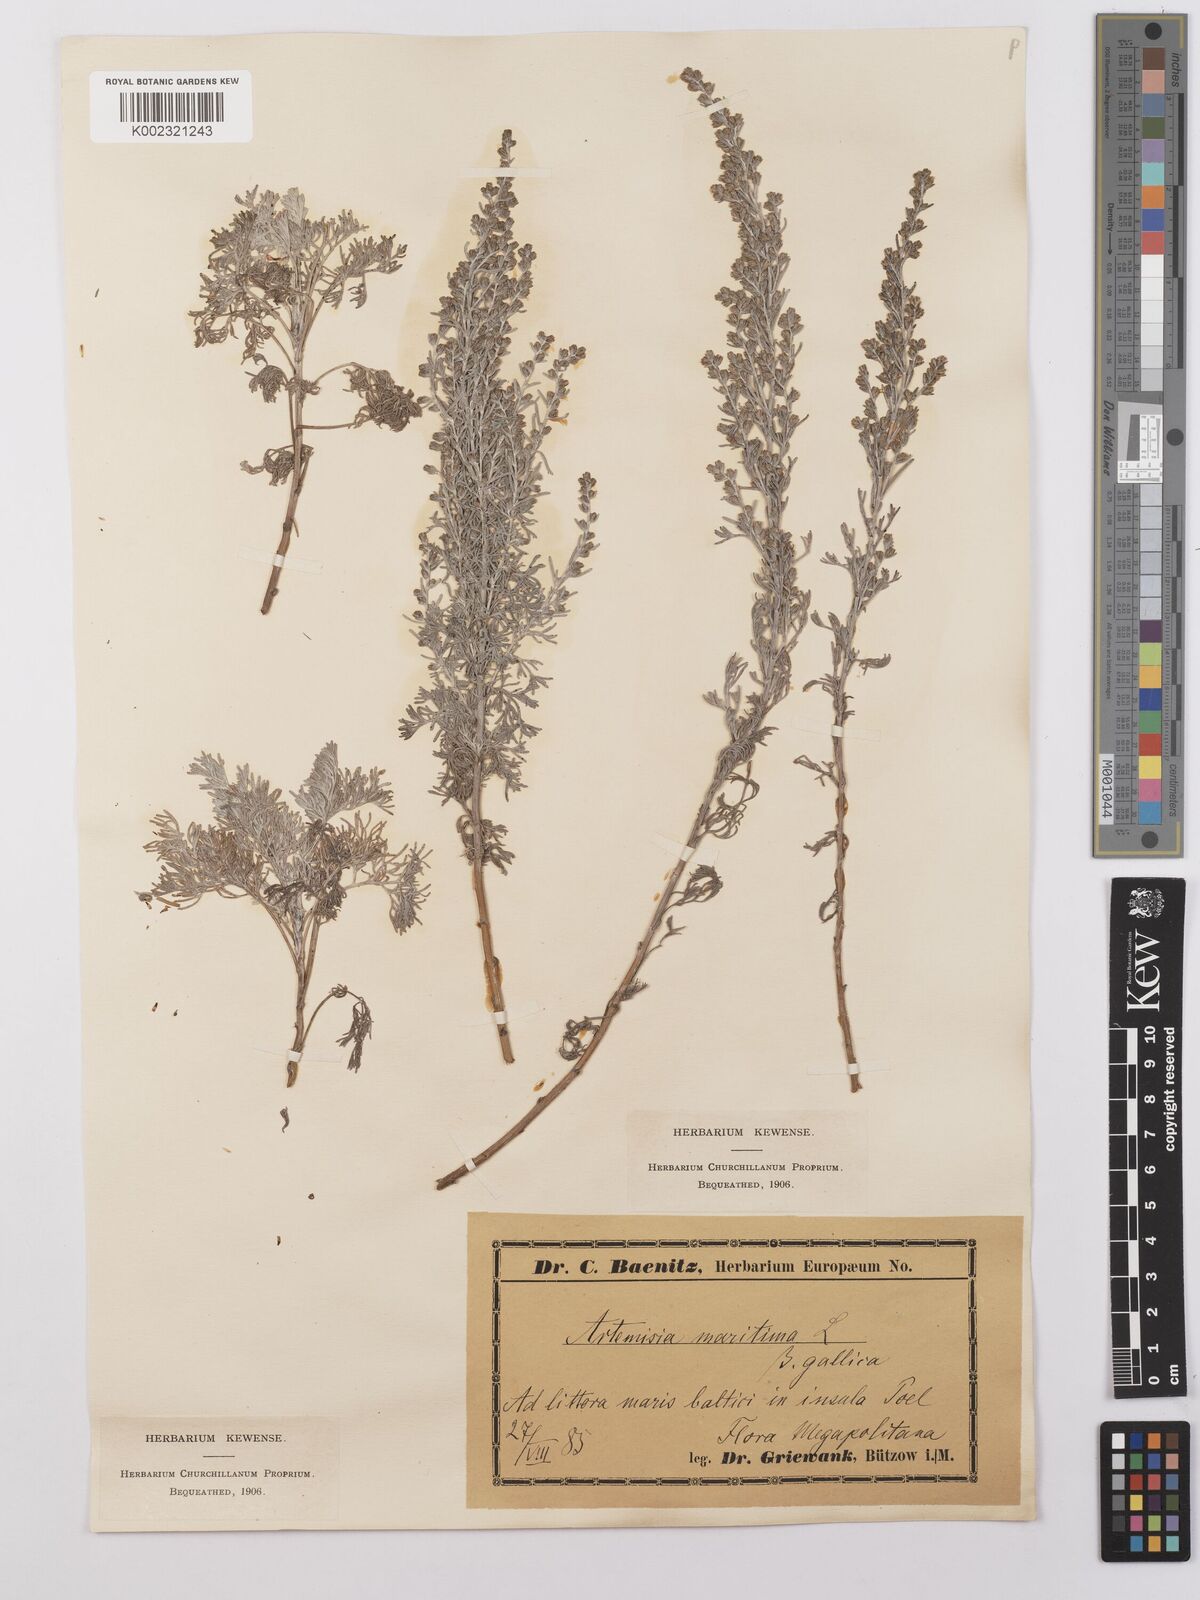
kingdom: Plantae
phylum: Tracheophyta
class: Magnoliopsida
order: Asterales
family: Asteraceae
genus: Artemisia
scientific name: Artemisia maritima
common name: Wormseed
